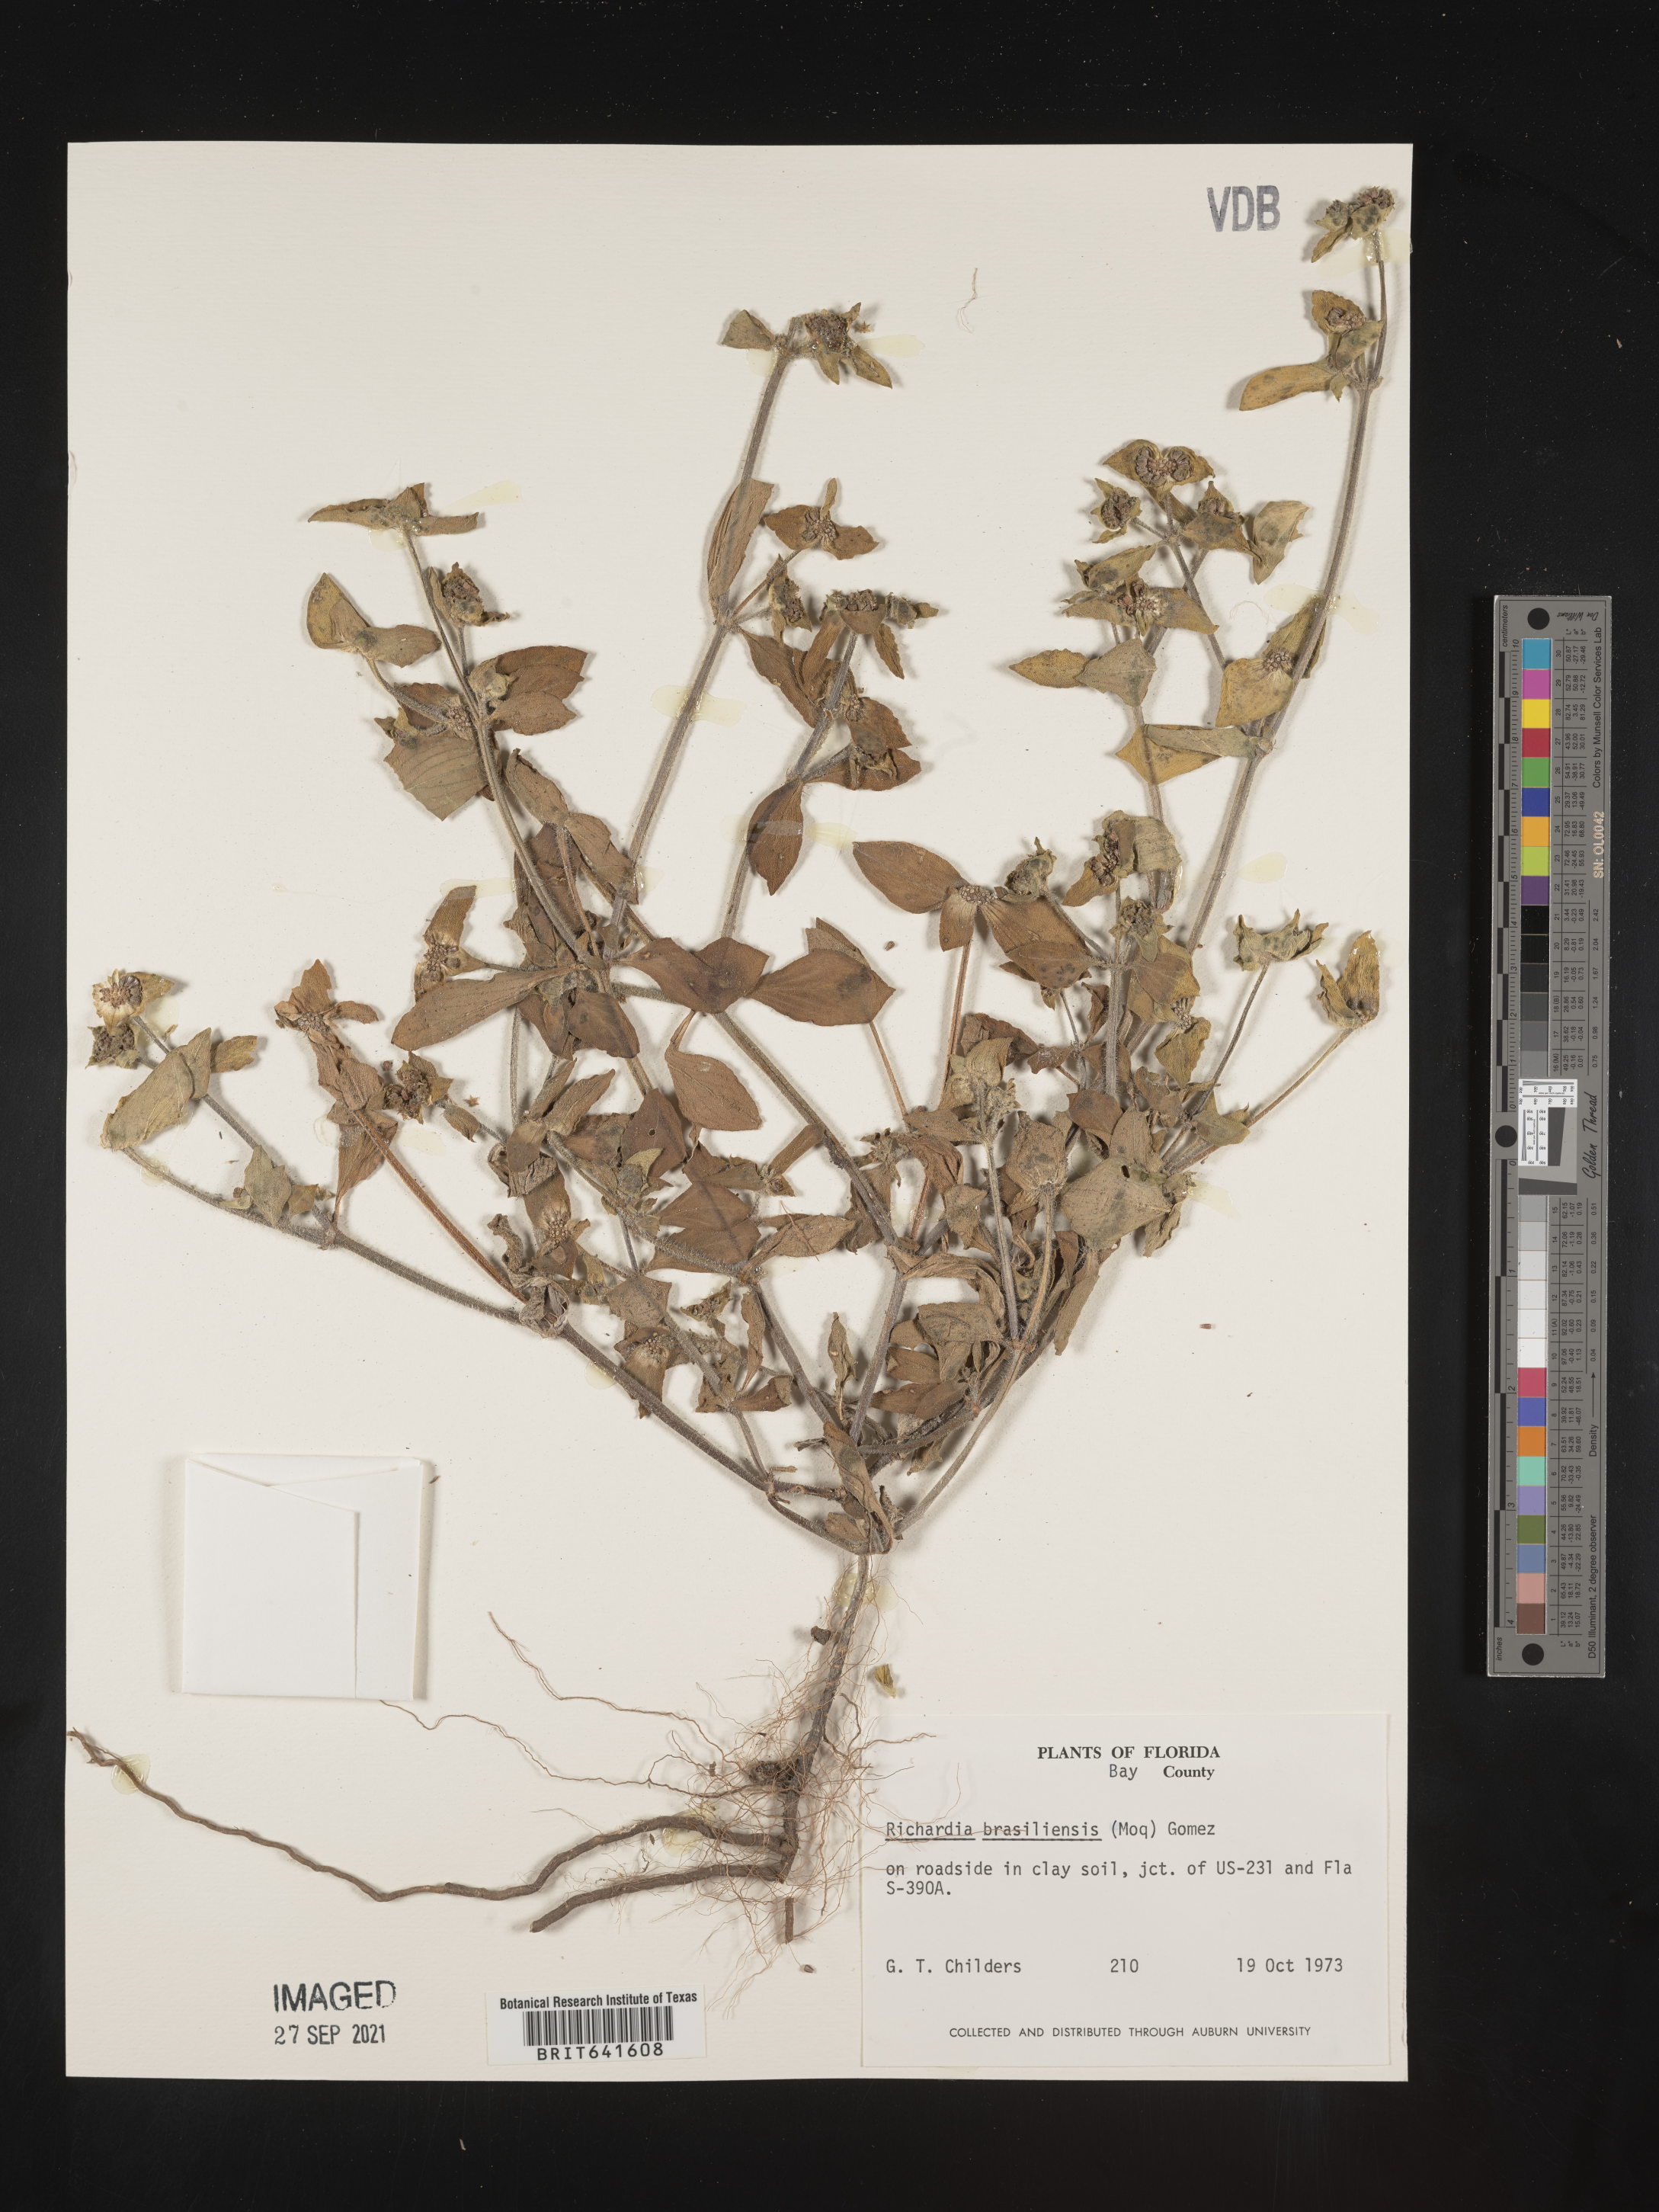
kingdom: Plantae
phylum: Tracheophyta
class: Magnoliopsida
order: Gentianales
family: Rubiaceae
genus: Richardia
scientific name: Richardia brasiliensis
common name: Tropical mexican clover
